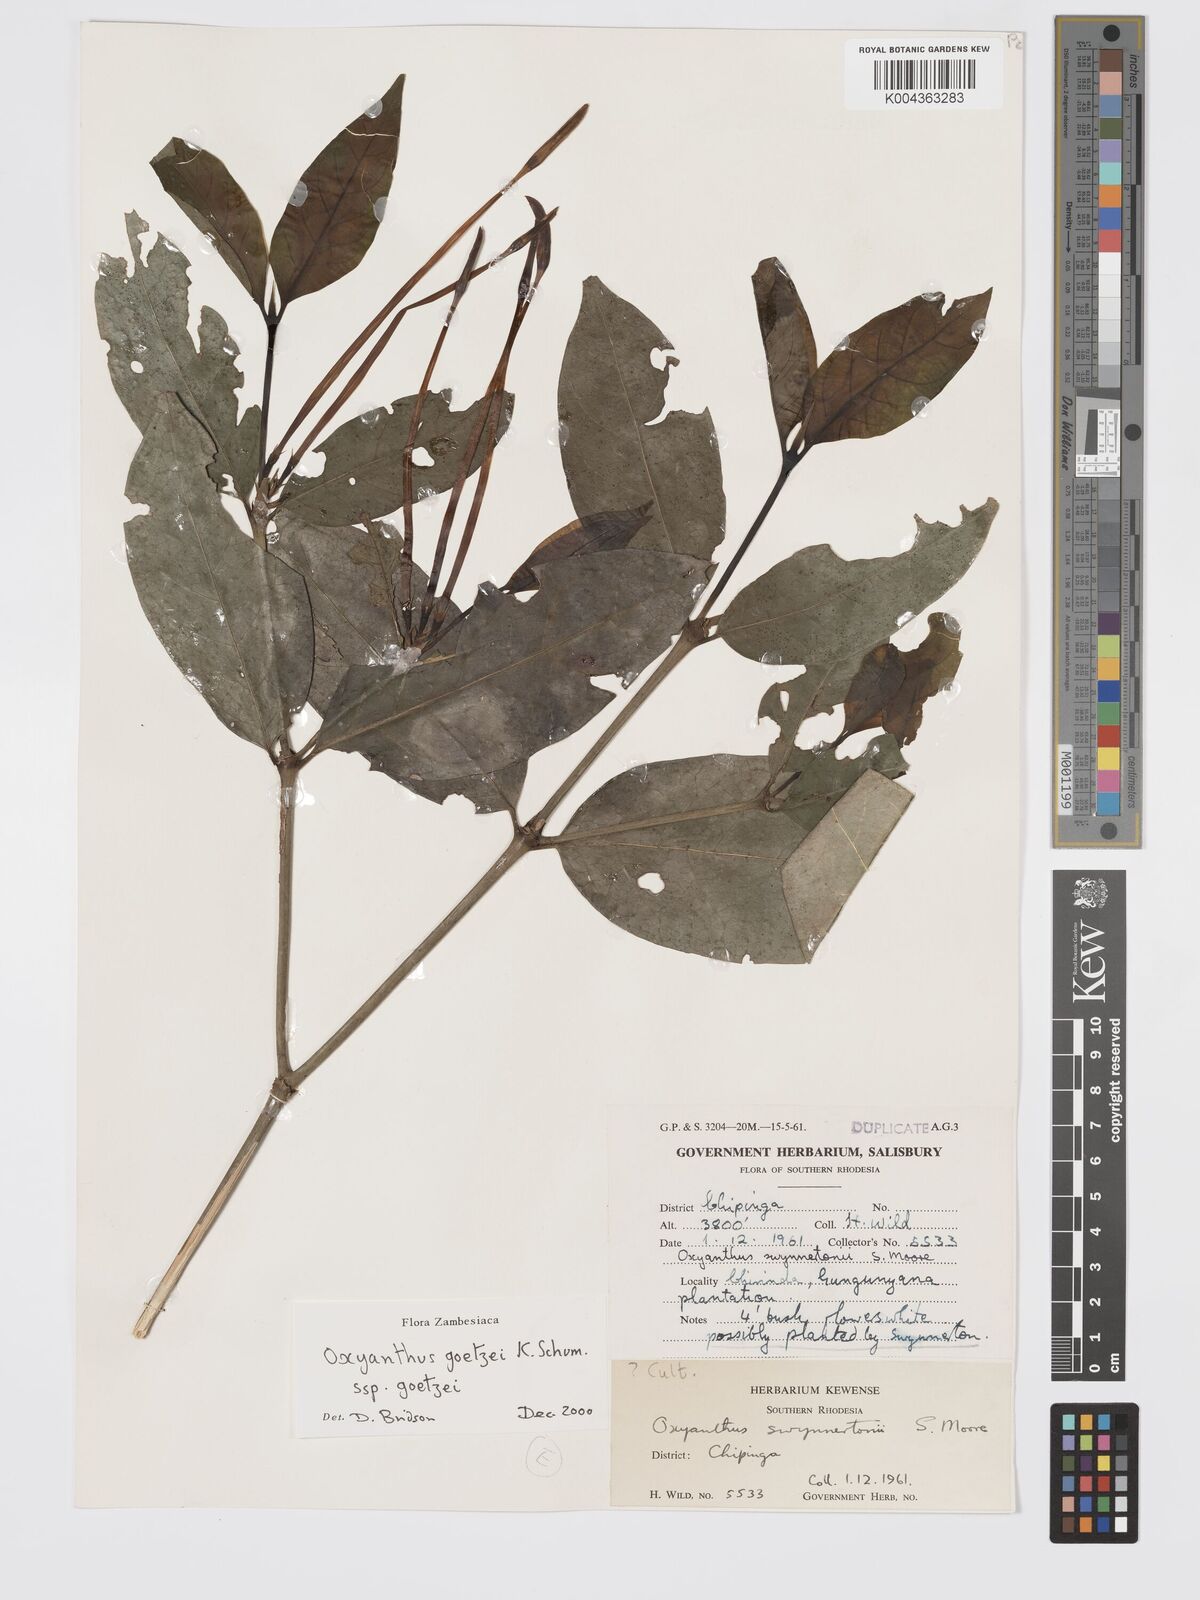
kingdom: Plantae
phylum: Tracheophyta
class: Magnoliopsida
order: Gentianales
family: Rubiaceae
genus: Oxyanthus
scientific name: Oxyanthus goetzei
